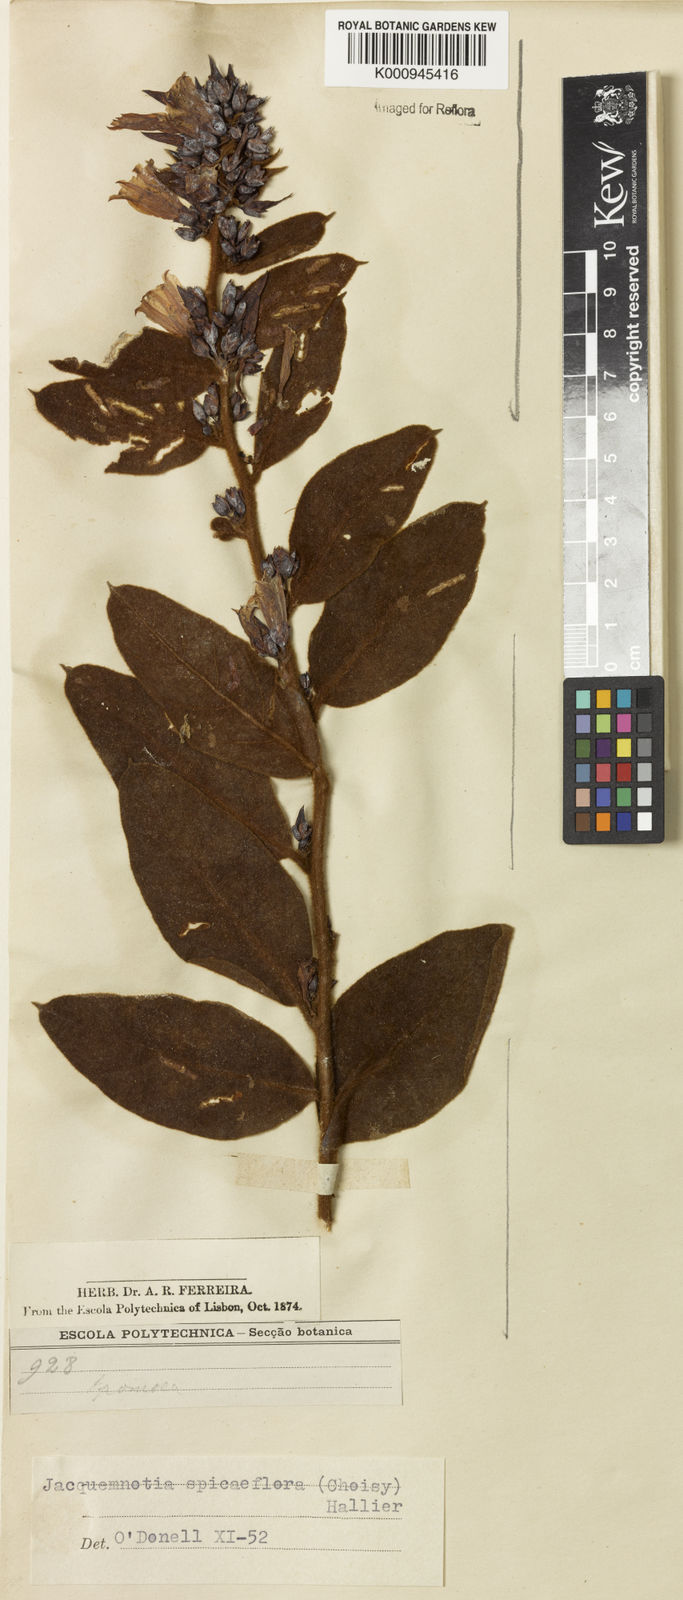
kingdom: Plantae
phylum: Tracheophyta
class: Magnoliopsida
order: Solanales
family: Convolvulaceae
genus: Jacquemontia
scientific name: Jacquemontia spiciflora
